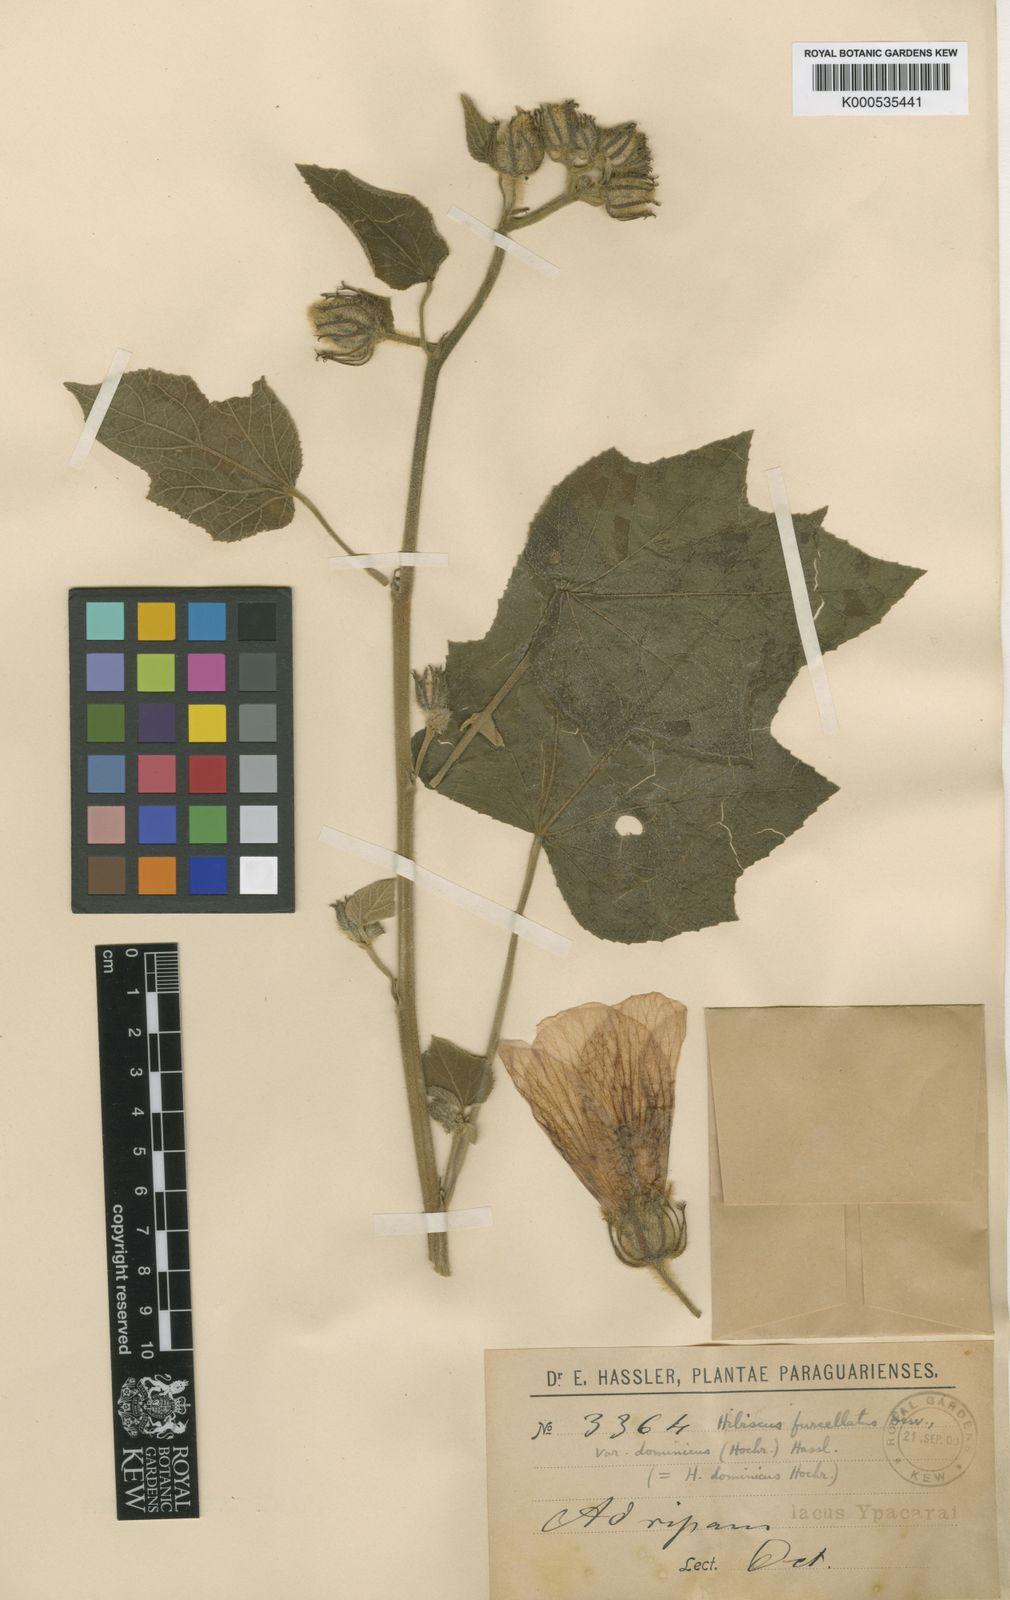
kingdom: Plantae
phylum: Tracheophyta
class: Magnoliopsida
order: Malvales
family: Malvaceae
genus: Hibiscus
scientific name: Hibiscus furcellatus
